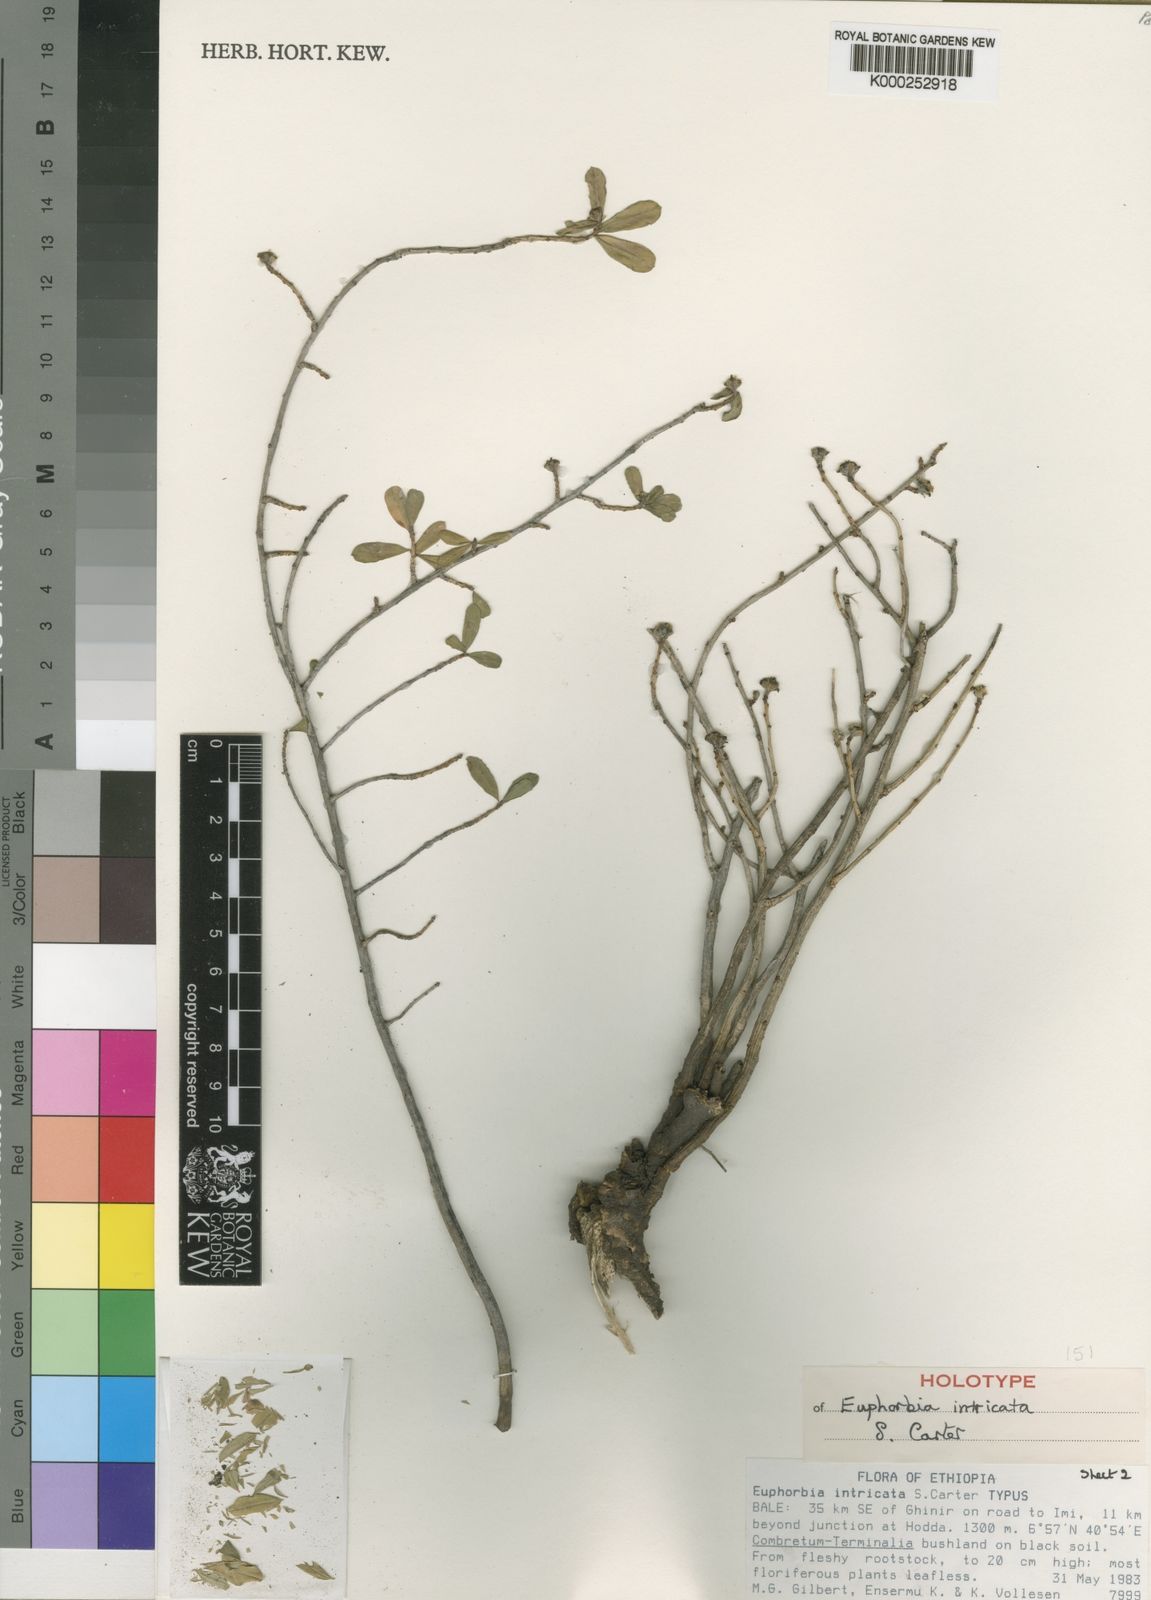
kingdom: Plantae
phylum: Tracheophyta
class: Magnoliopsida
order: Malpighiales
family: Euphorbiaceae
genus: Euphorbia
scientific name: Euphorbia intricata
